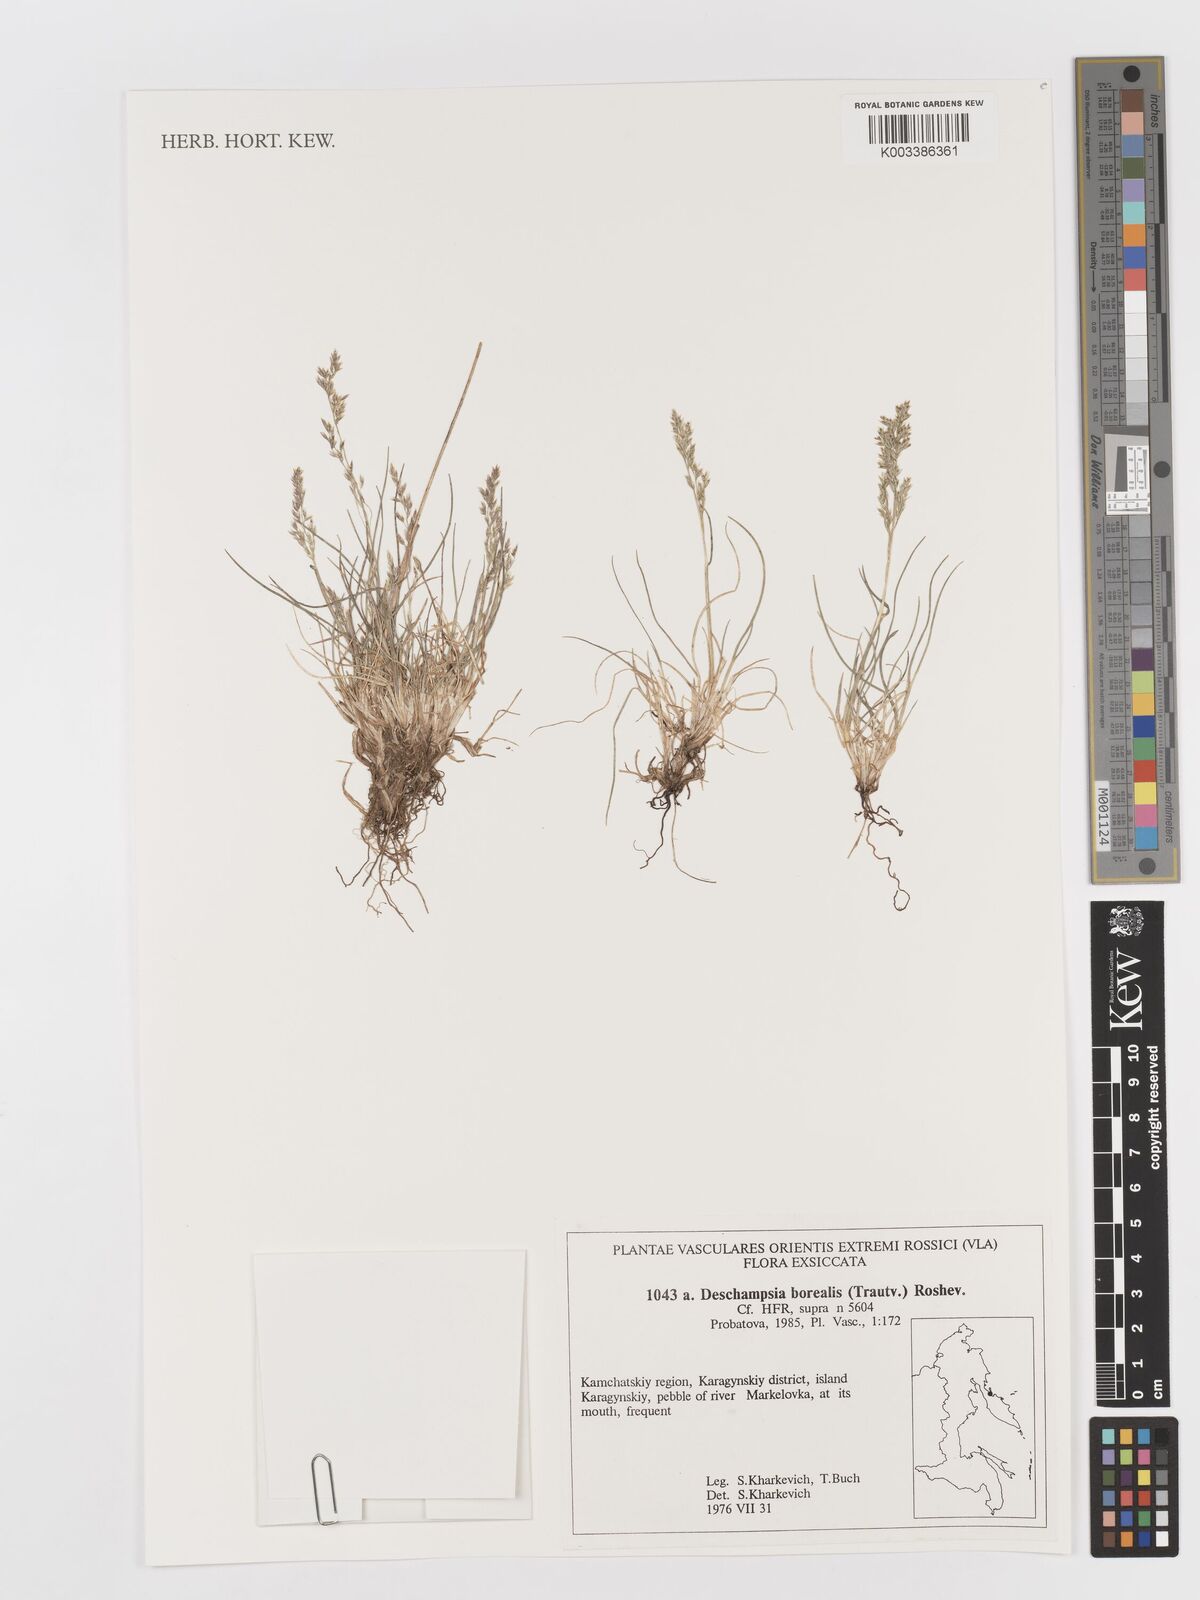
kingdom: Plantae
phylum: Tracheophyta
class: Liliopsida
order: Poales
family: Poaceae
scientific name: Poaceae
